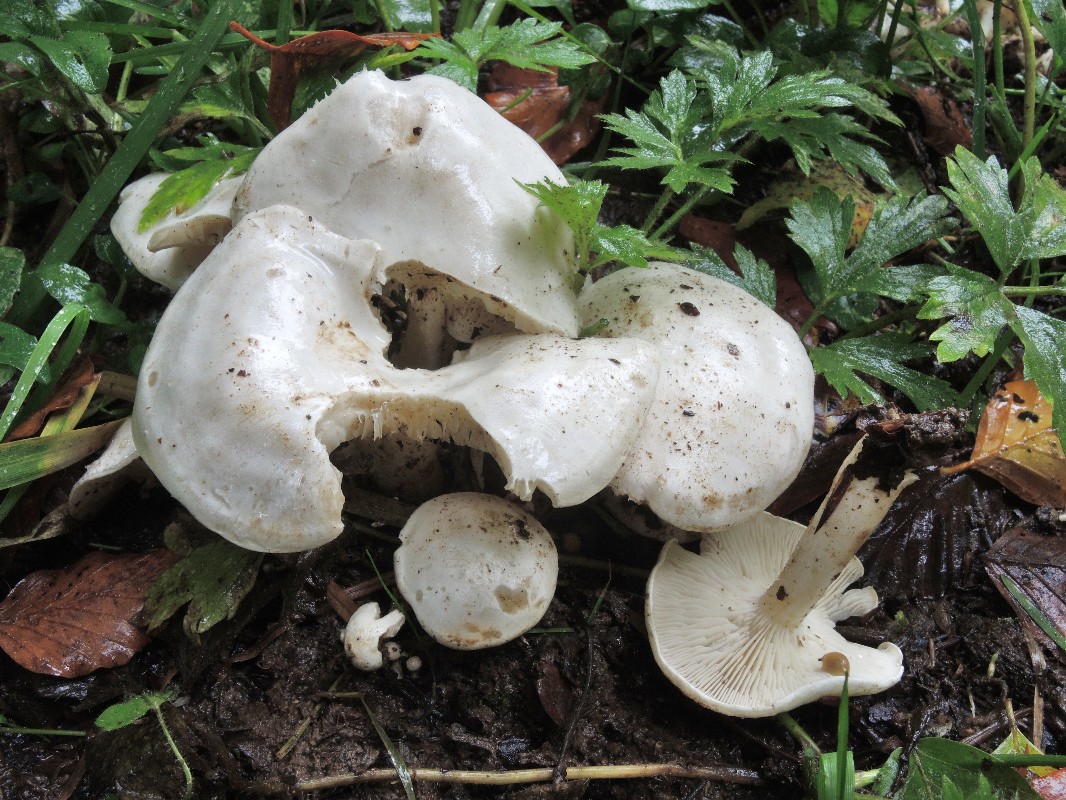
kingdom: Fungi
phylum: Basidiomycota
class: Agaricomycetes
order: Agaricales
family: Tricholomataceae
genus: Leucocybe
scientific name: Leucocybe connata
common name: knippe-tragthat
